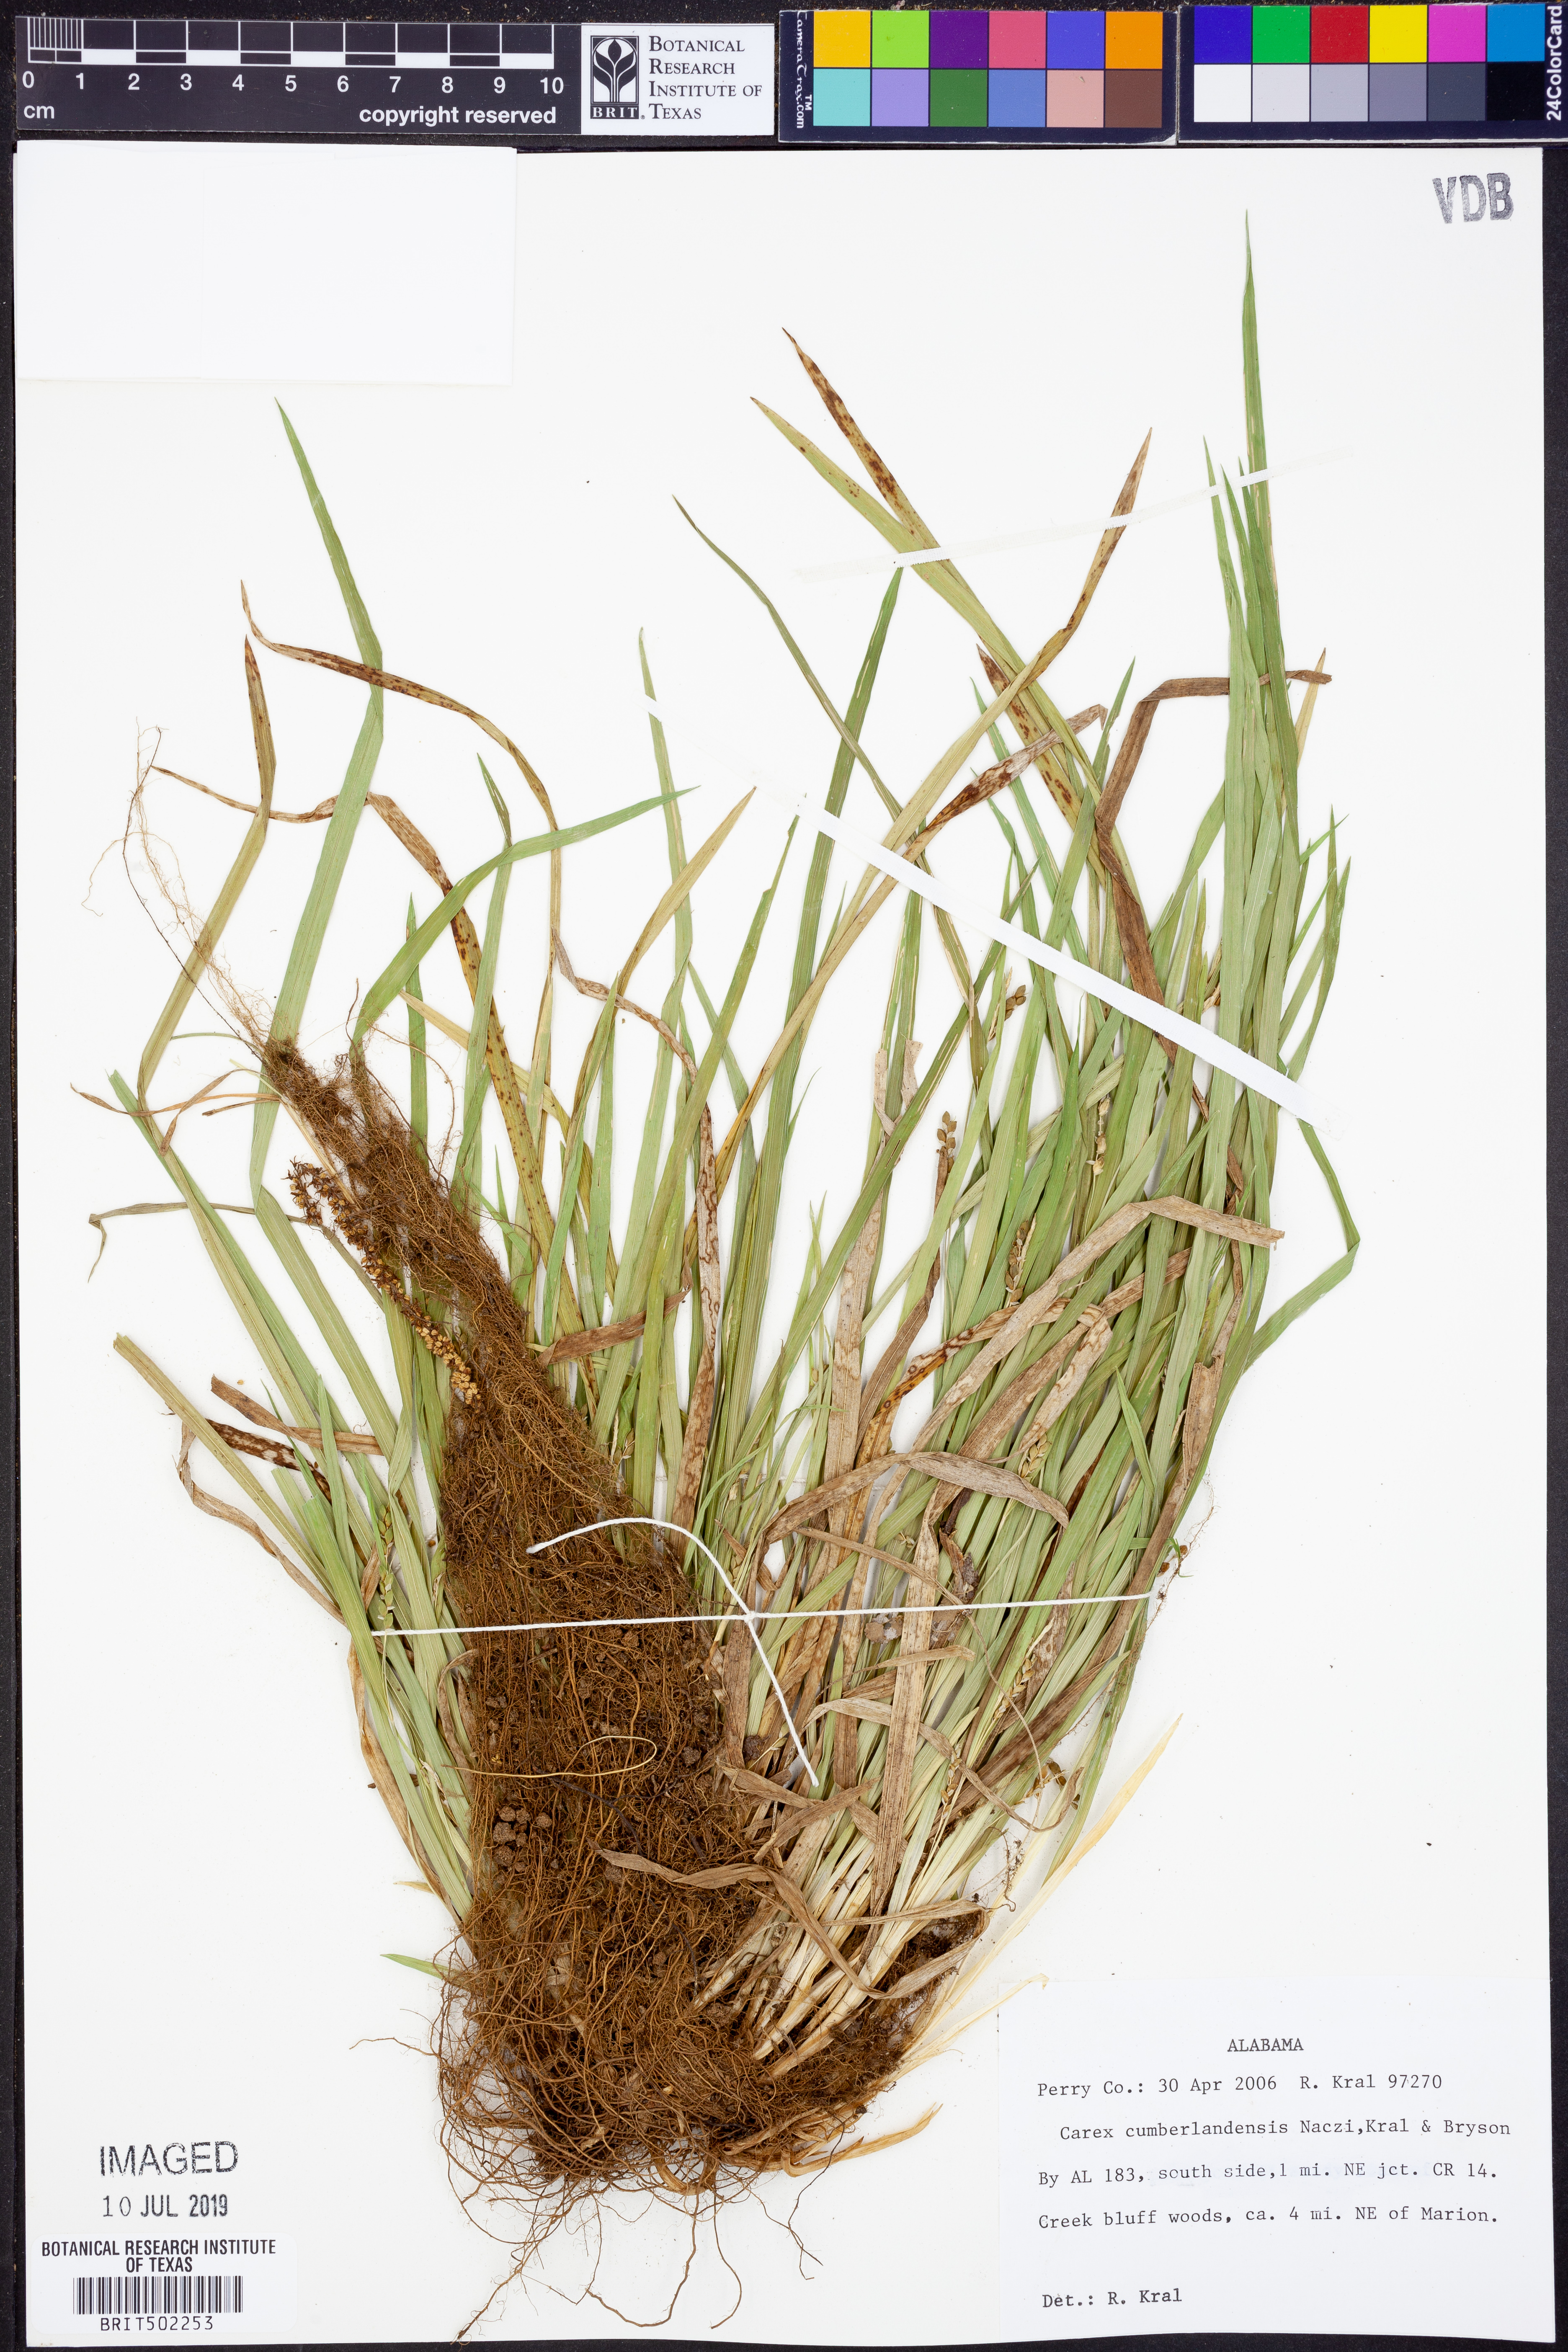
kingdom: Plantae
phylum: Tracheophyta
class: Liliopsida
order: Poales
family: Cyperaceae
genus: Carex
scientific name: Carex cumberlandensis
